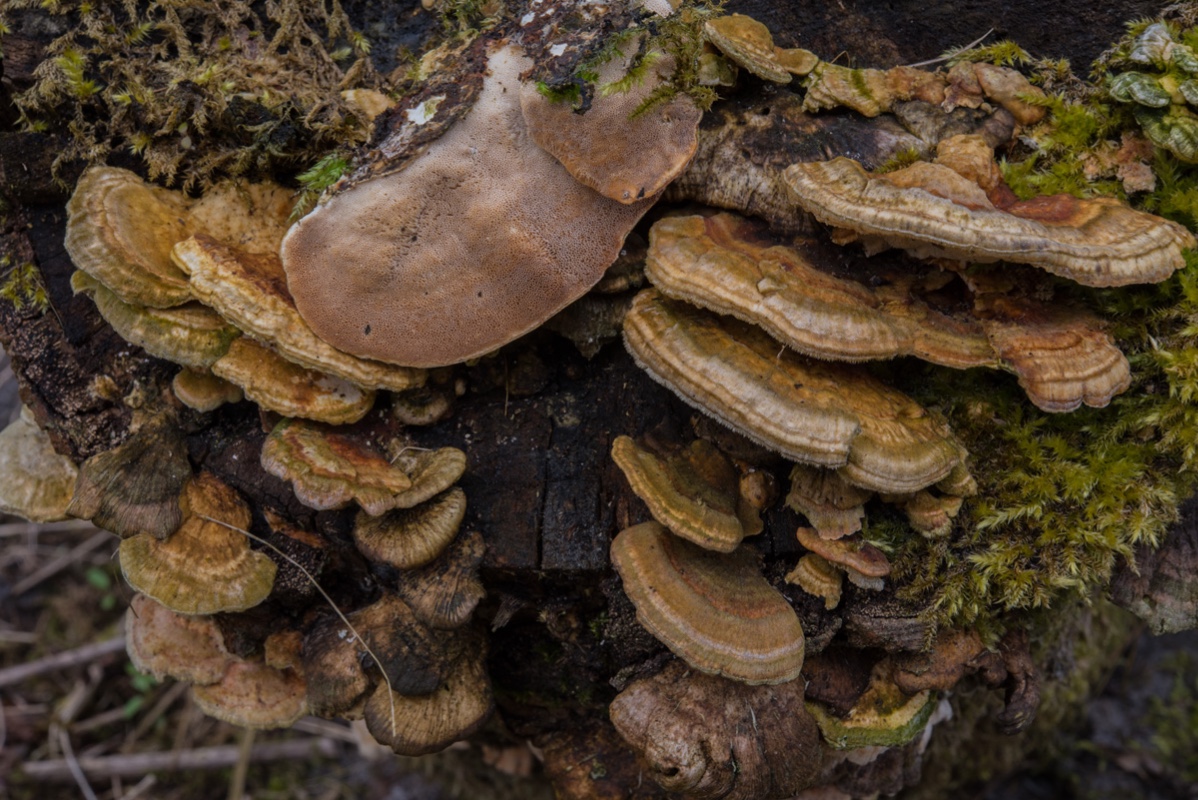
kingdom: Fungi
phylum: Basidiomycota
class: Agaricomycetes
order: Polyporales
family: Polyporaceae
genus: Trametes
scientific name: Trametes ochracea
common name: bæltet læderporesvamp
